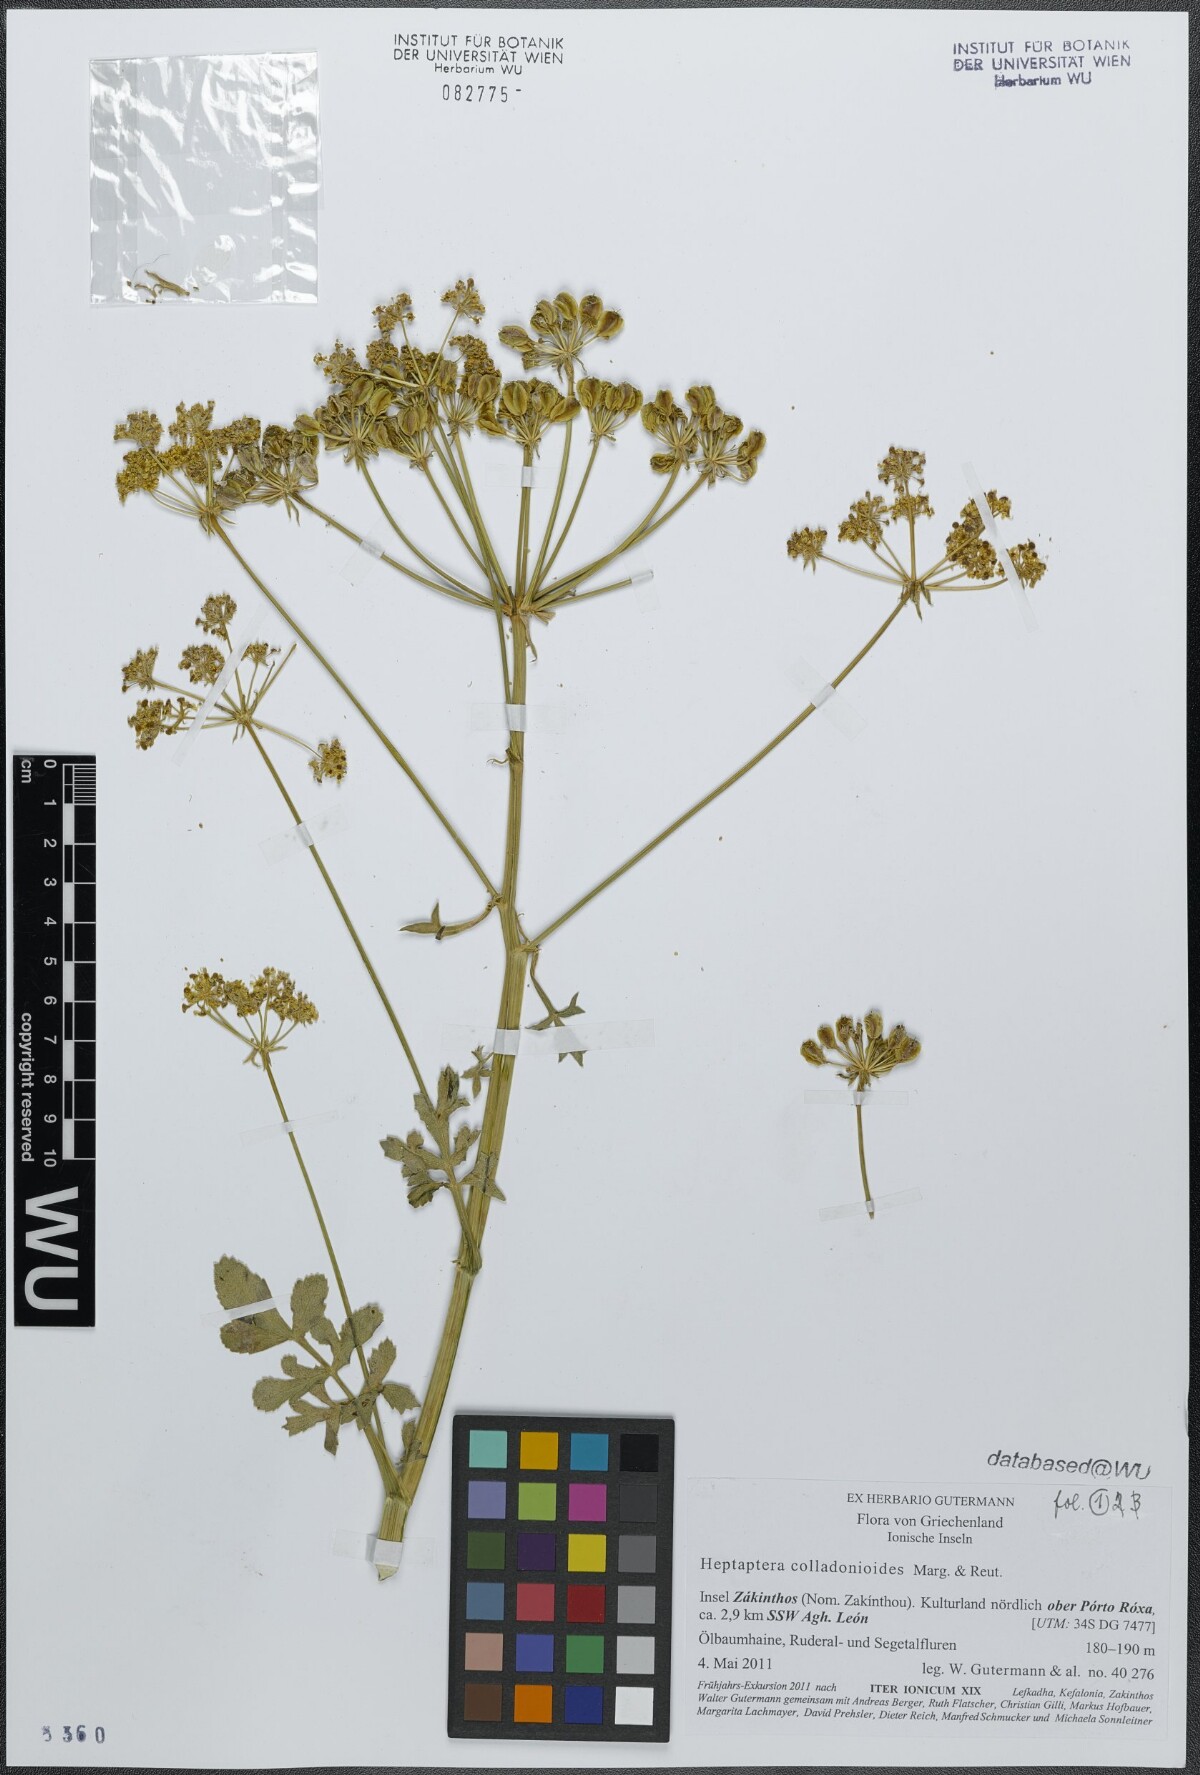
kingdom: Plantae
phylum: Tracheophyta
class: Magnoliopsida
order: Apiales
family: Apiaceae
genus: Heptaptera
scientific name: Heptaptera colladonioides
